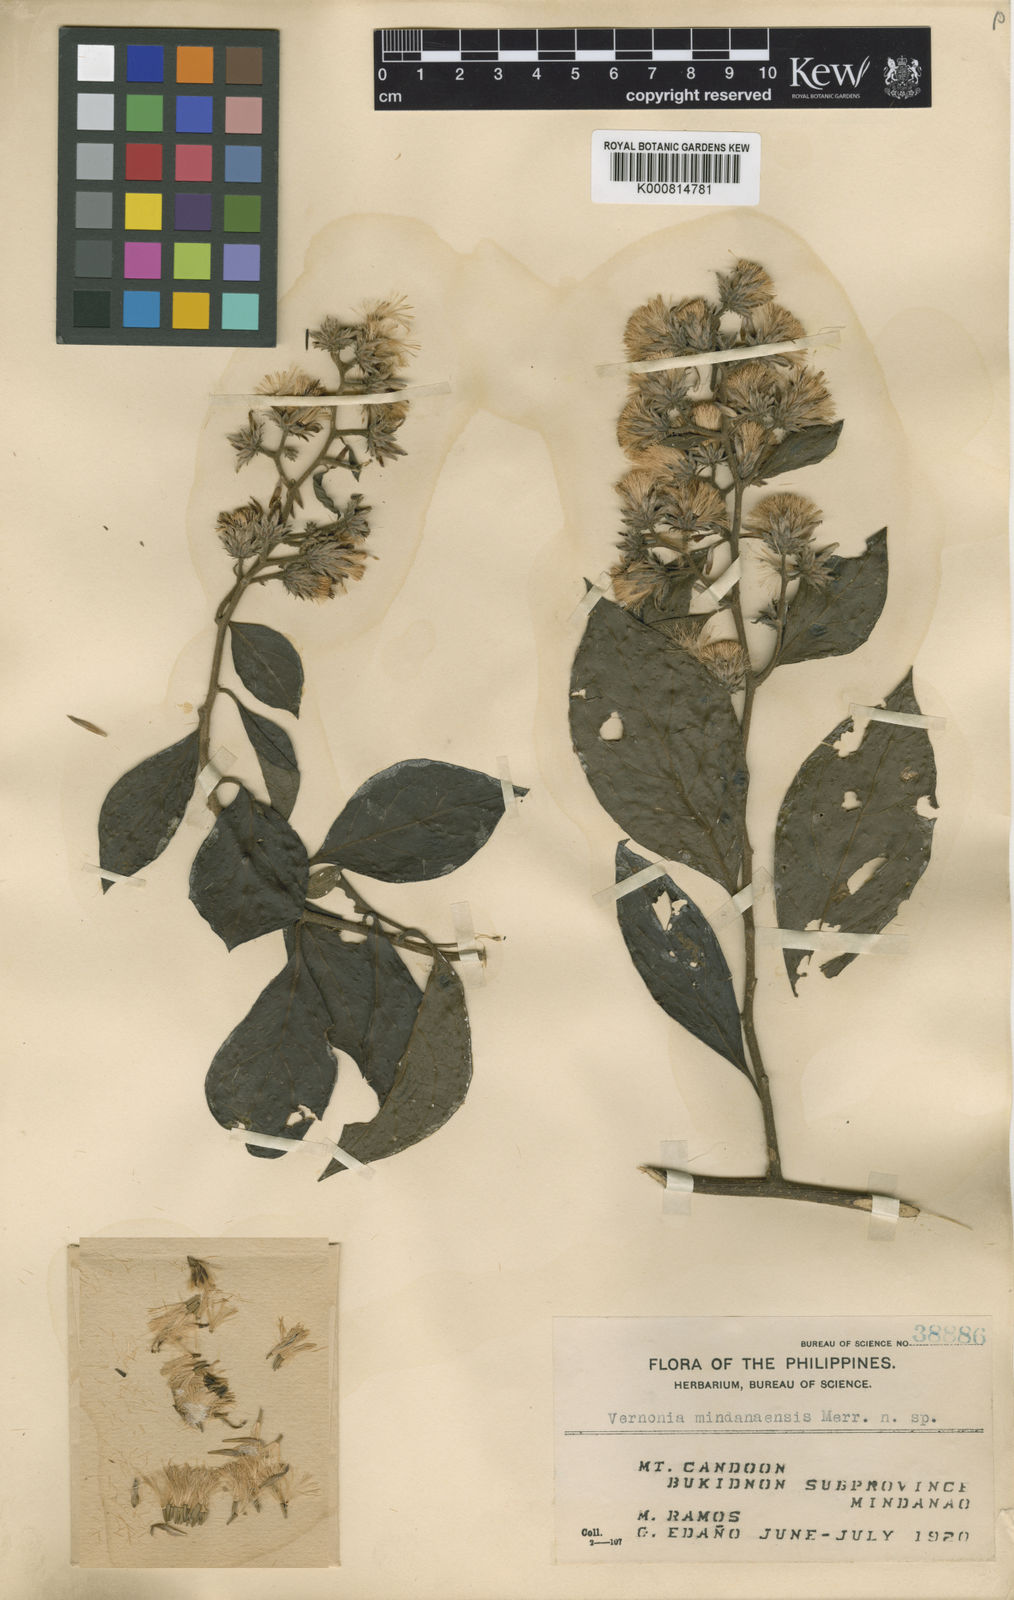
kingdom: Plantae
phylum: Tracheophyta
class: Magnoliopsida
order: Asterales
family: Asteraceae
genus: Vernonia
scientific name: Vernonia mindanaensis
